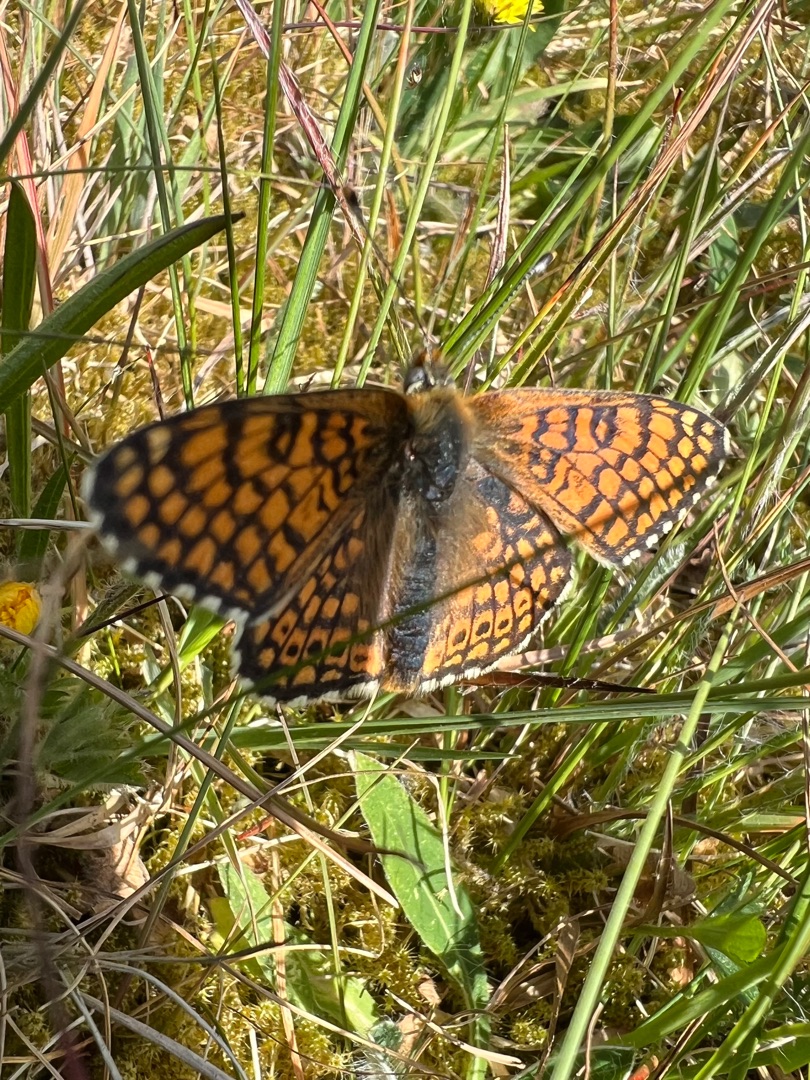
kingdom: Animalia
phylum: Arthropoda
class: Insecta
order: Lepidoptera
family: Nymphalidae
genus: Melitaea
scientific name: Melitaea cinxia
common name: Okkergul pletvinge
